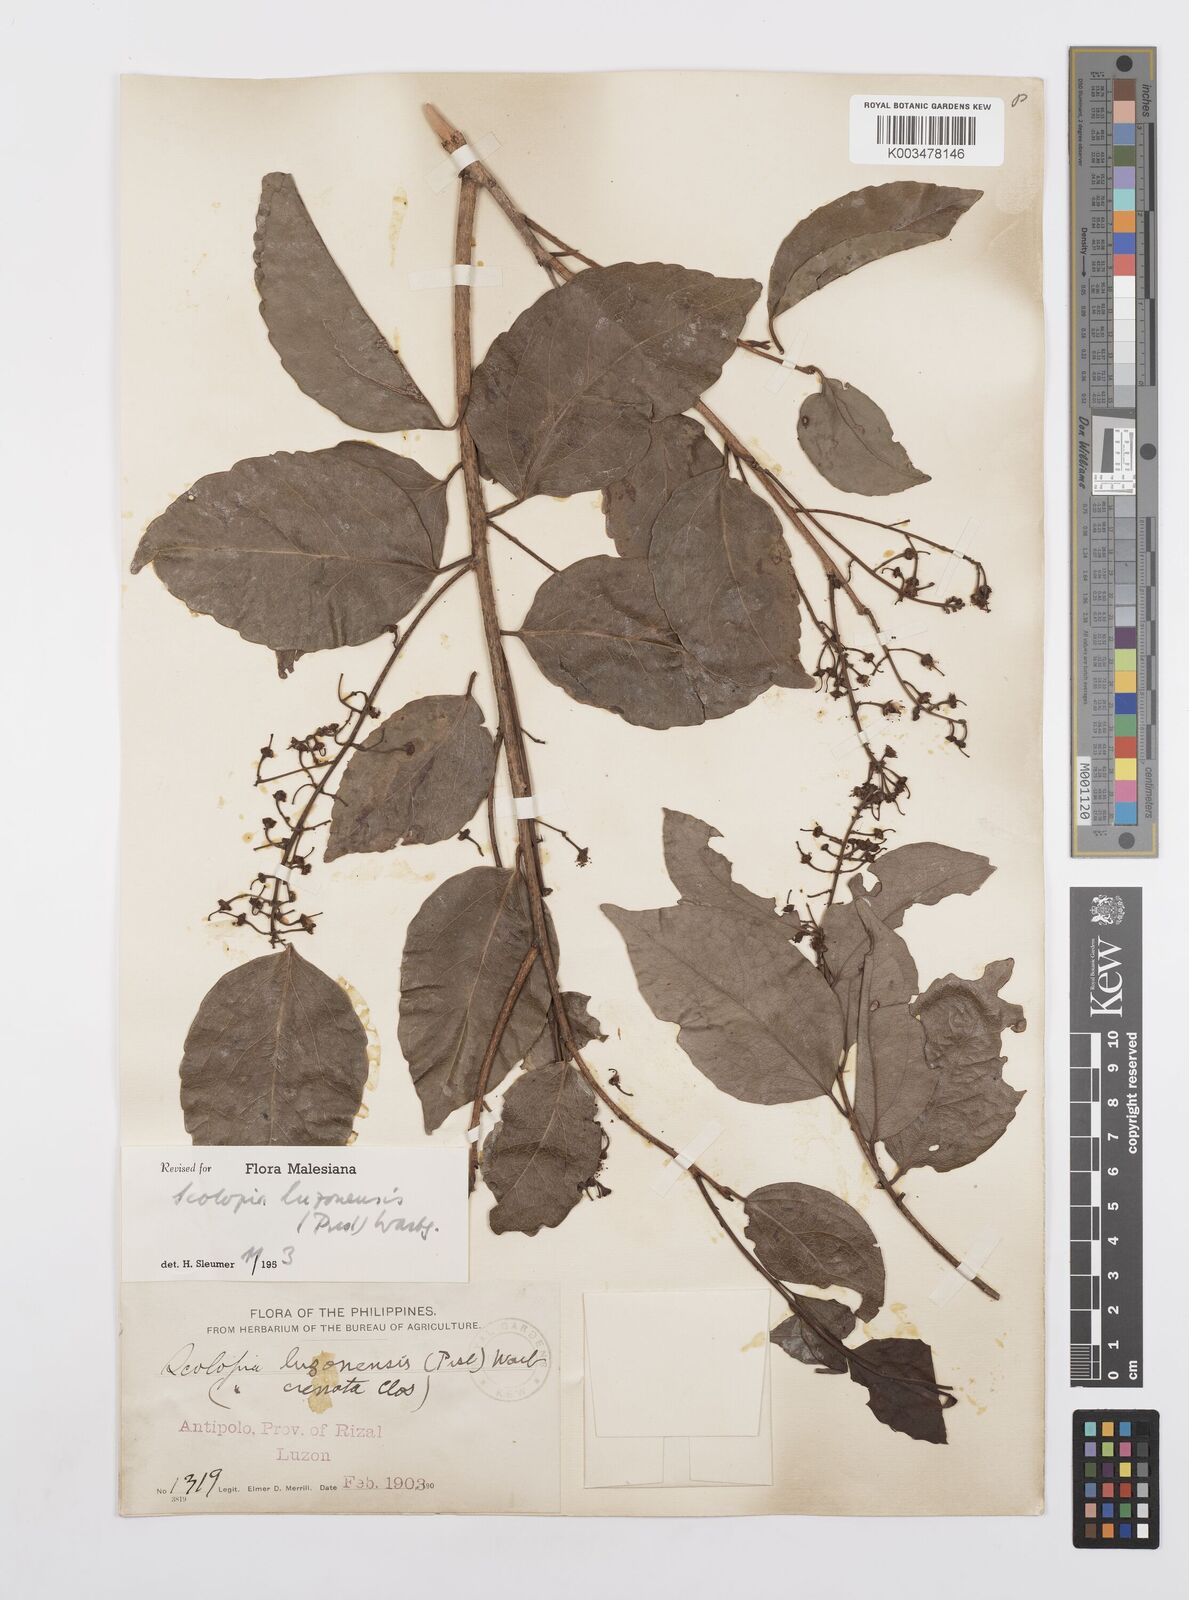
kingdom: Plantae
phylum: Tracheophyta
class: Magnoliopsida
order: Malpighiales
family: Salicaceae
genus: Scolopia
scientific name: Scolopia luzonensis
